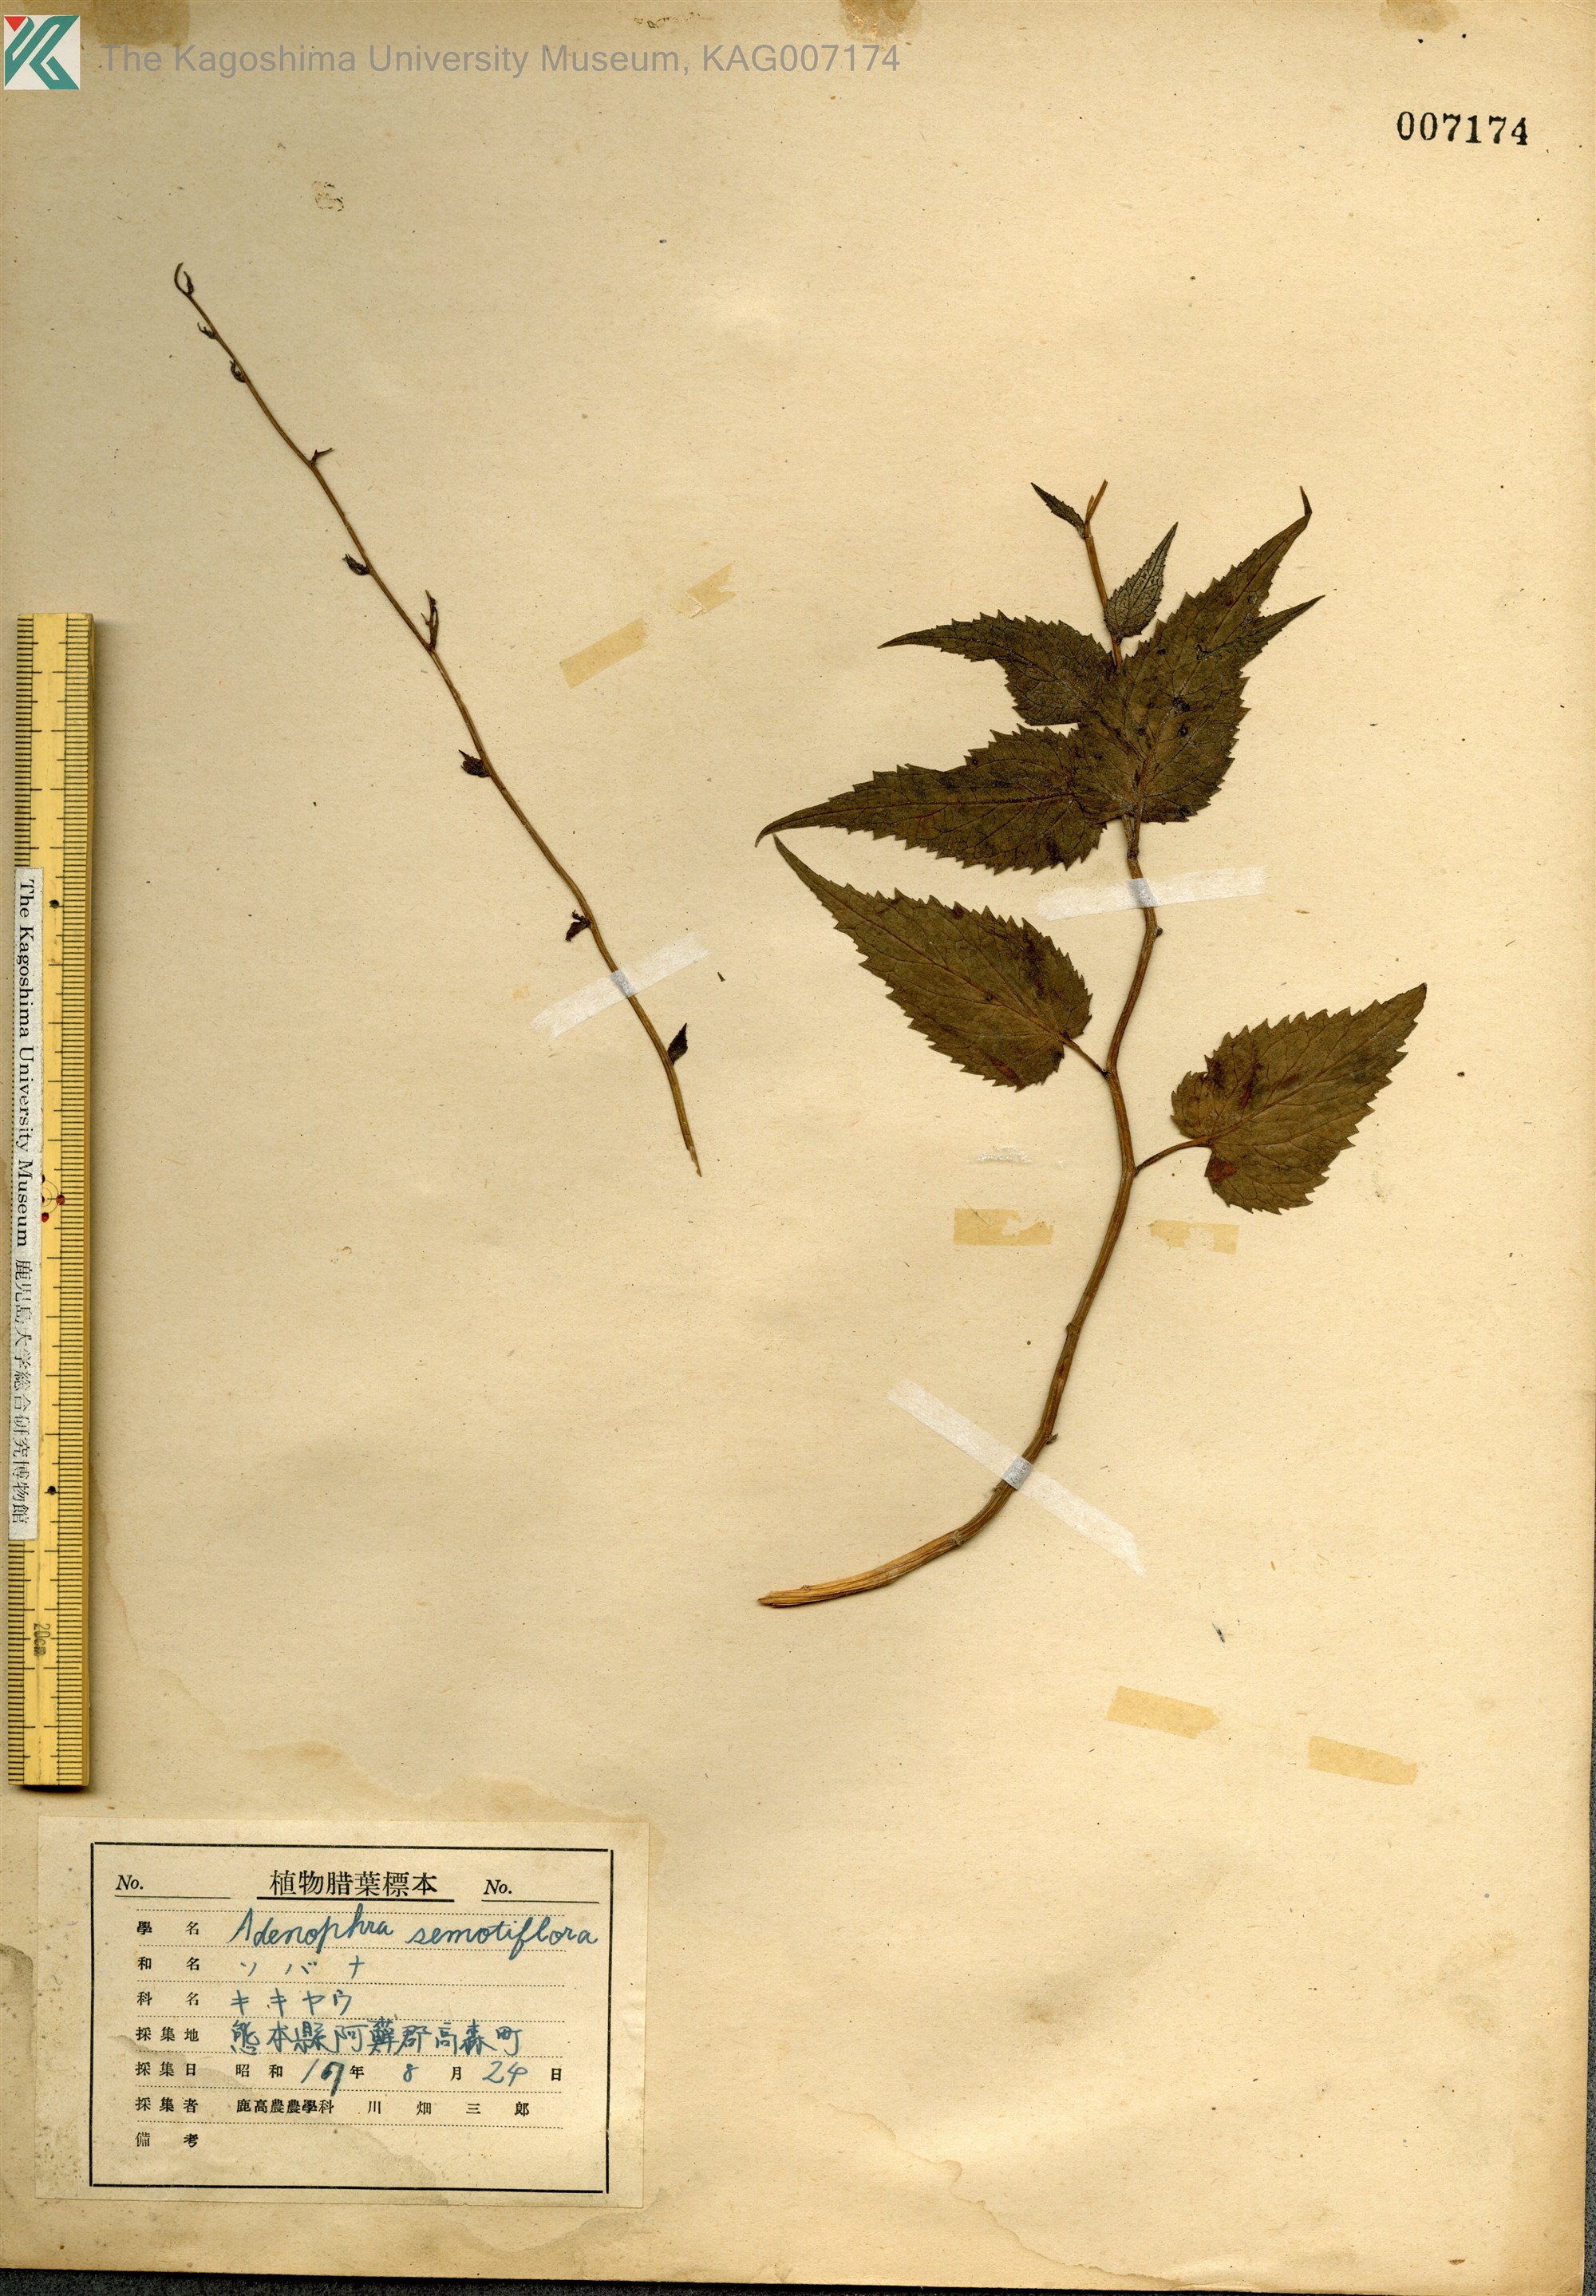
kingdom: Plantae
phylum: Tracheophyta
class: Magnoliopsida
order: Asterales
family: Campanulaceae
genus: Adenophora
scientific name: Adenophora remotiflora
